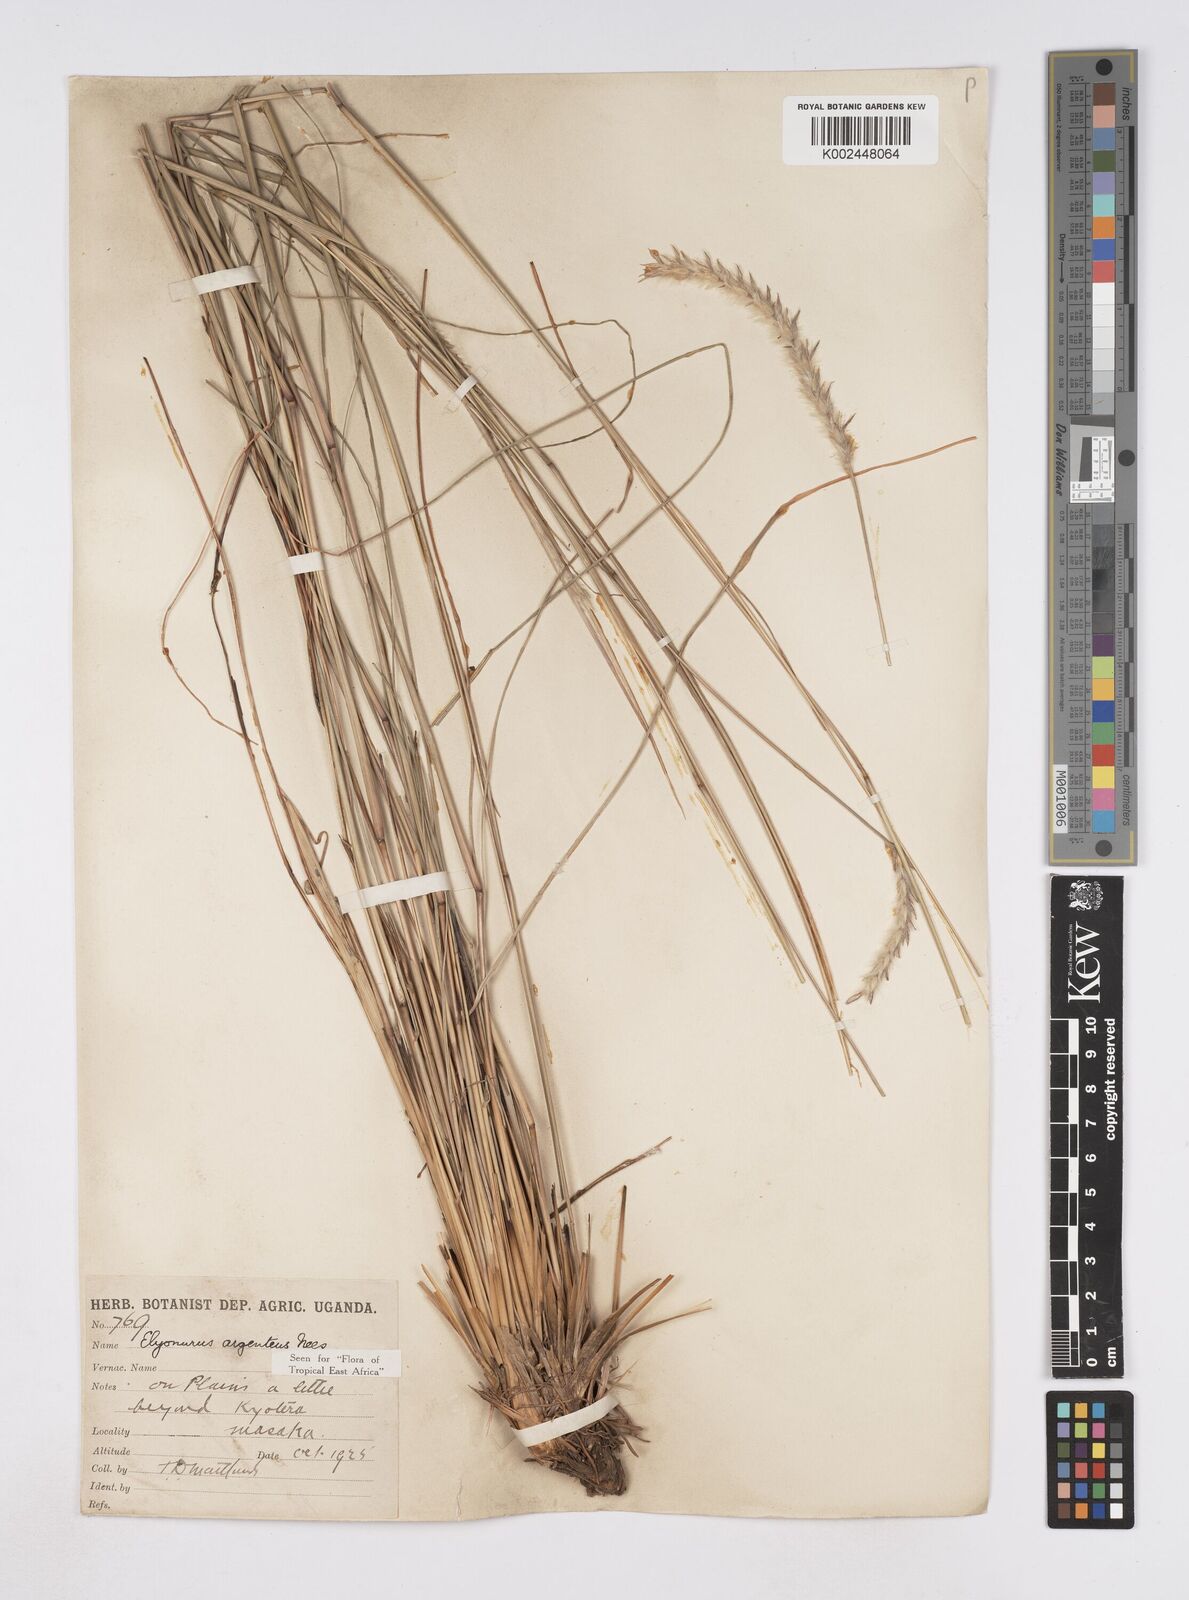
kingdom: Plantae
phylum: Tracheophyta
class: Liliopsida
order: Poales
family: Poaceae
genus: Elionurus
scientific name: Elionurus muticus
